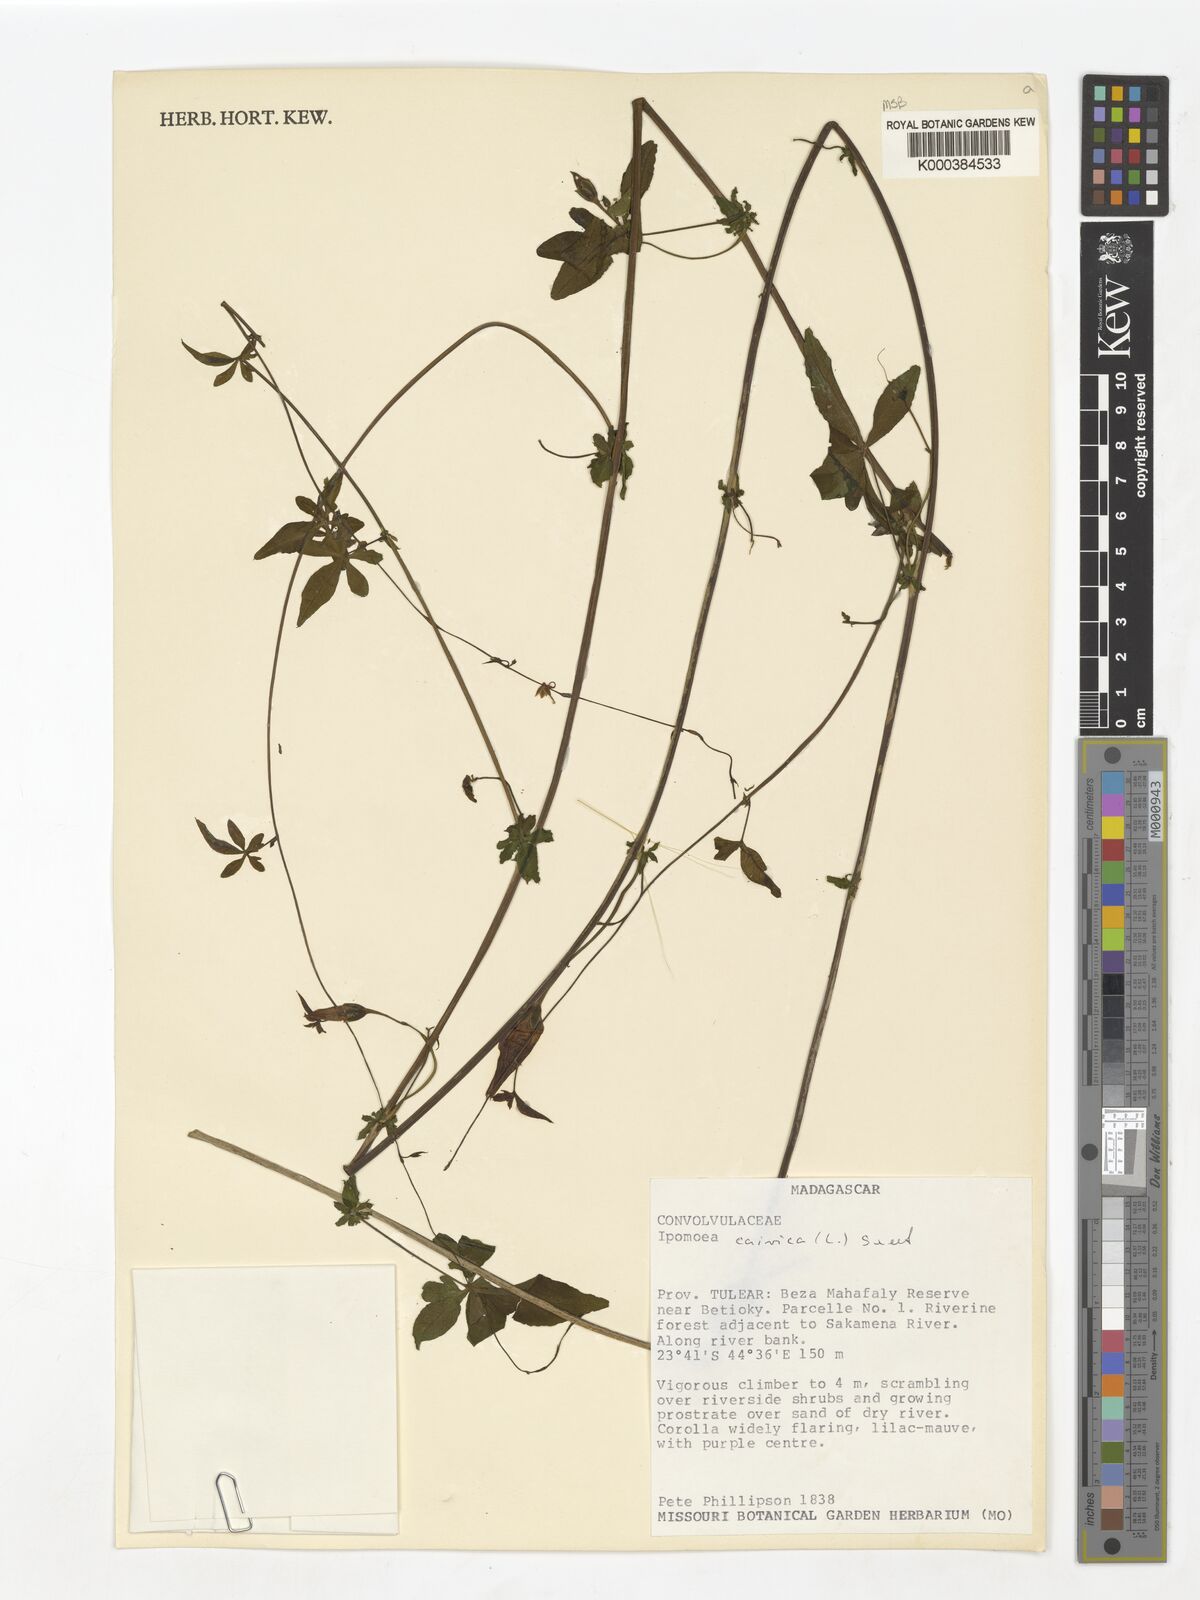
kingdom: Plantae
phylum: Tracheophyta
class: Magnoliopsida
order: Solanales
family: Convolvulaceae
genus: Ipomoea
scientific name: Ipomoea cairica
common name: Mile a minute vine
